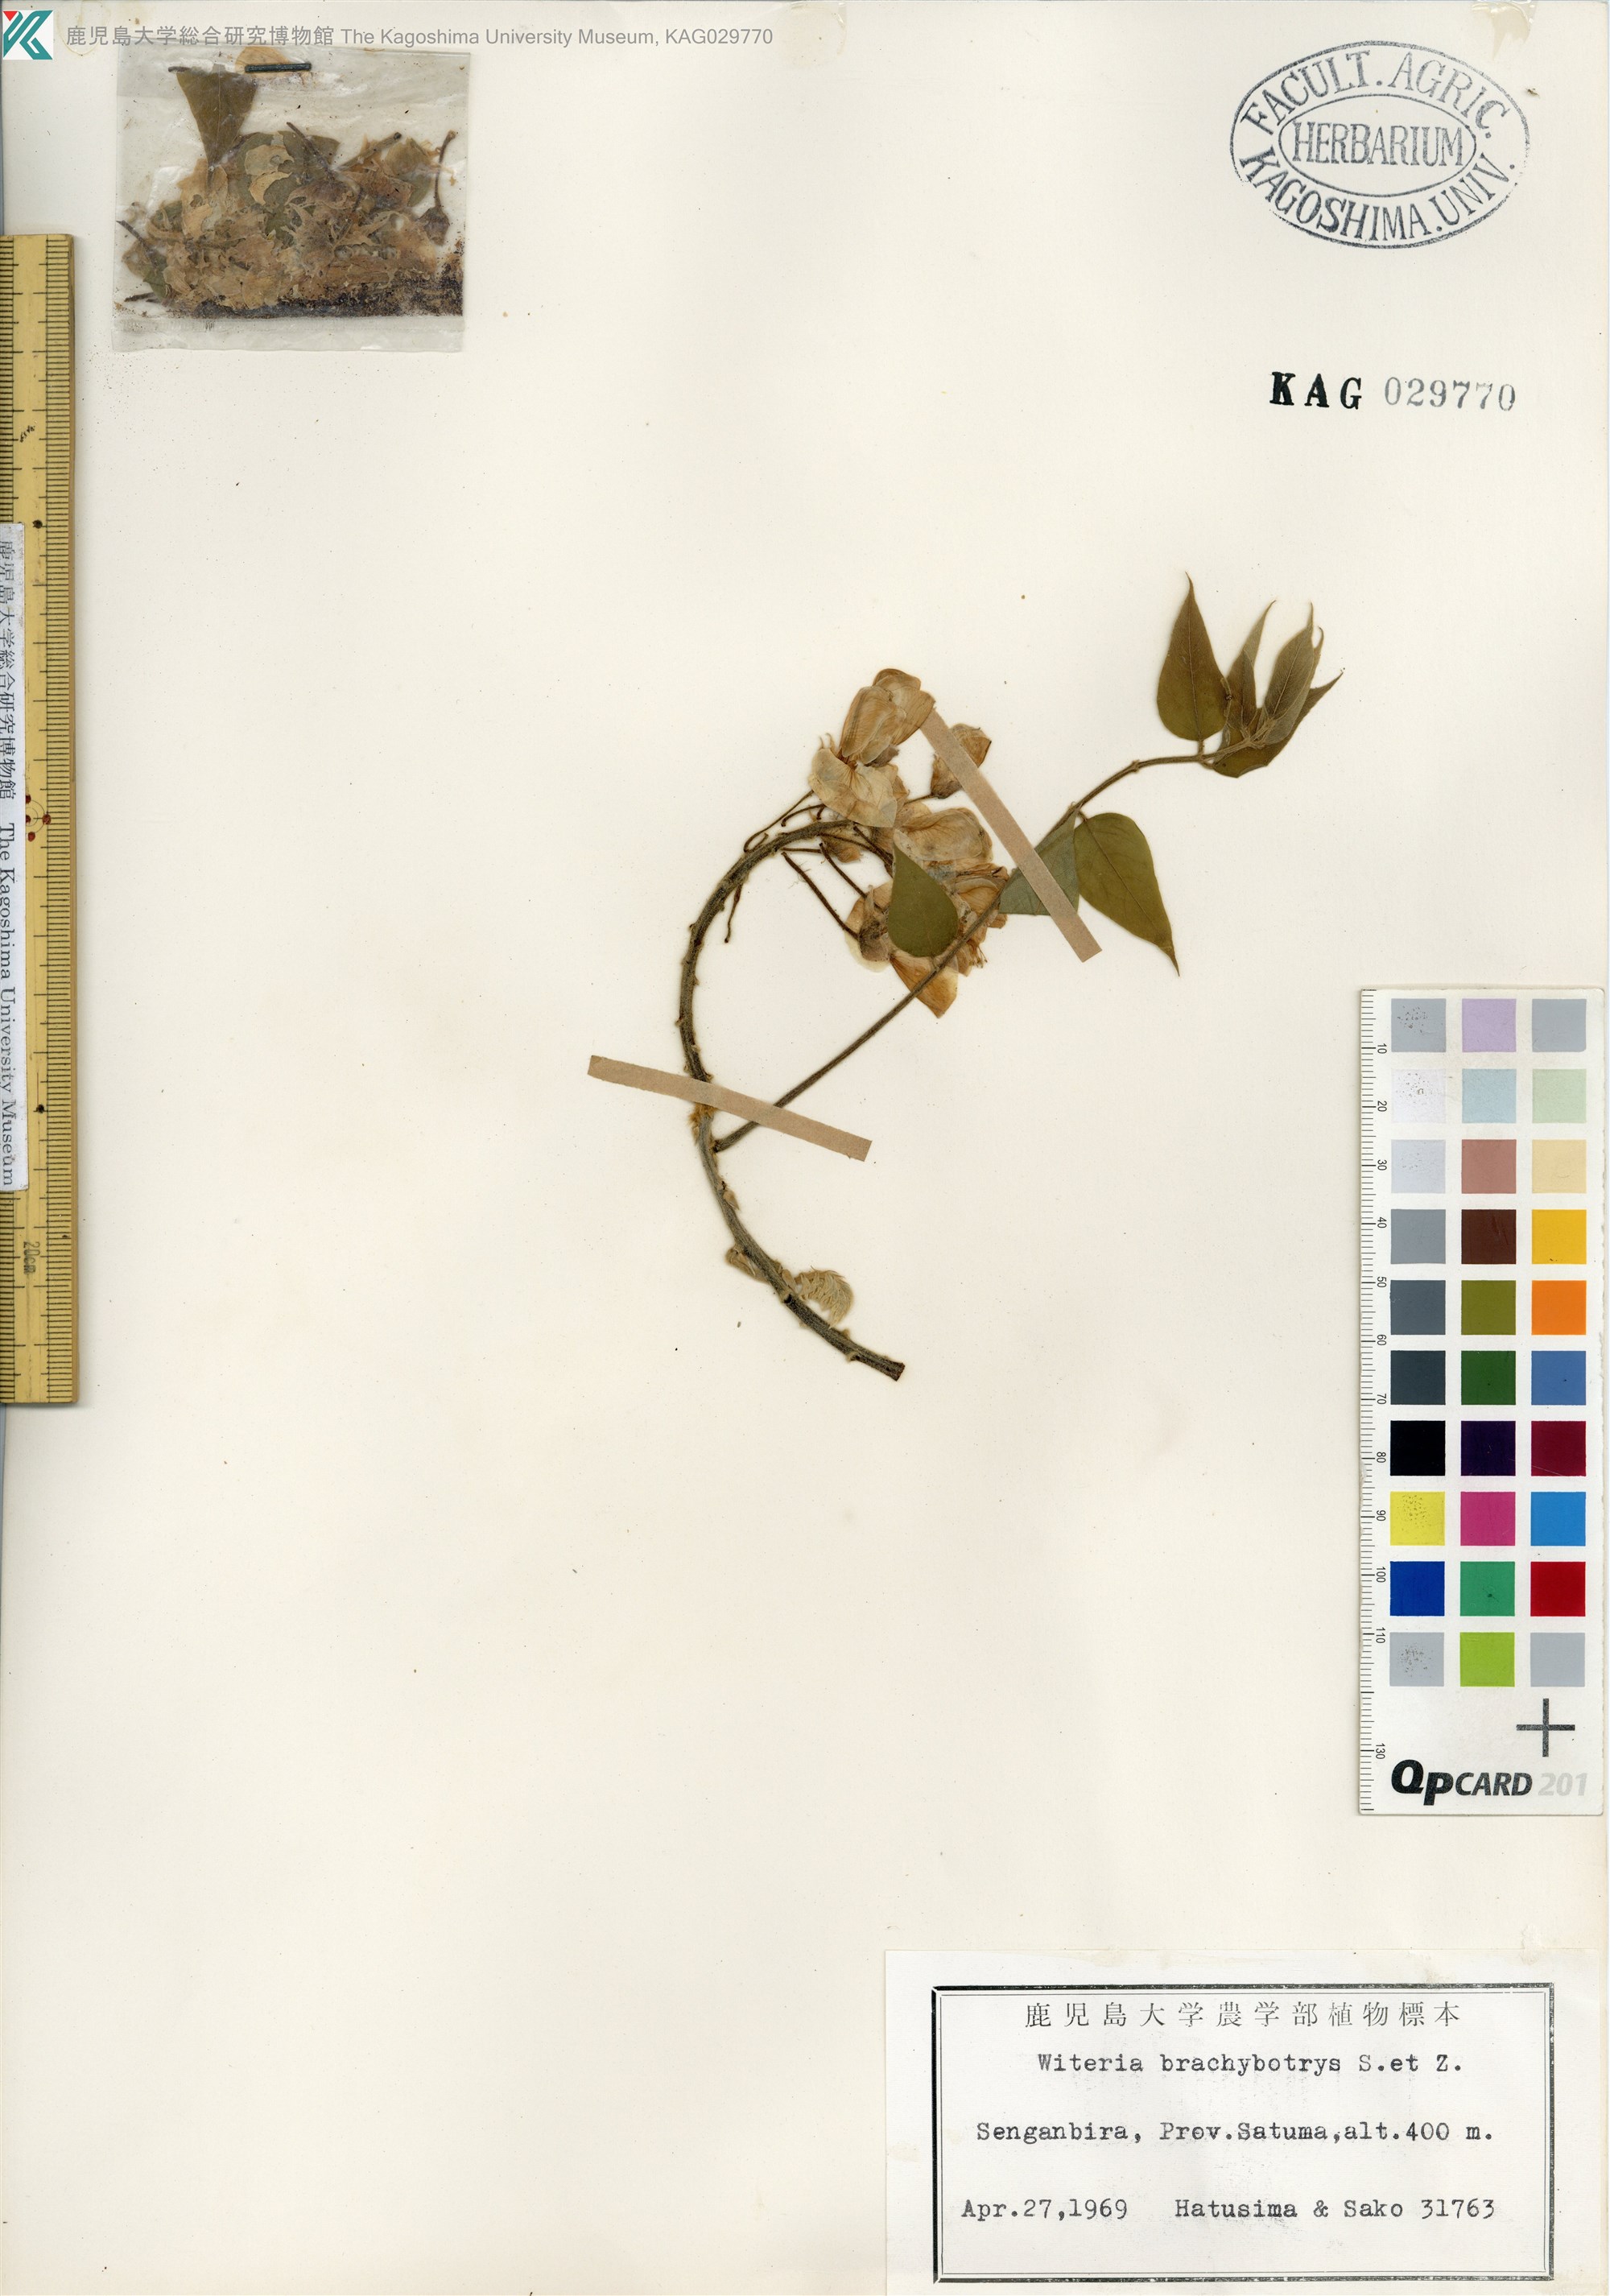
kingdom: Plantae
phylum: Tracheophyta
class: Magnoliopsida
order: Fabales
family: Fabaceae
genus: Wisteria
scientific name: Wisteria brachybotrys
